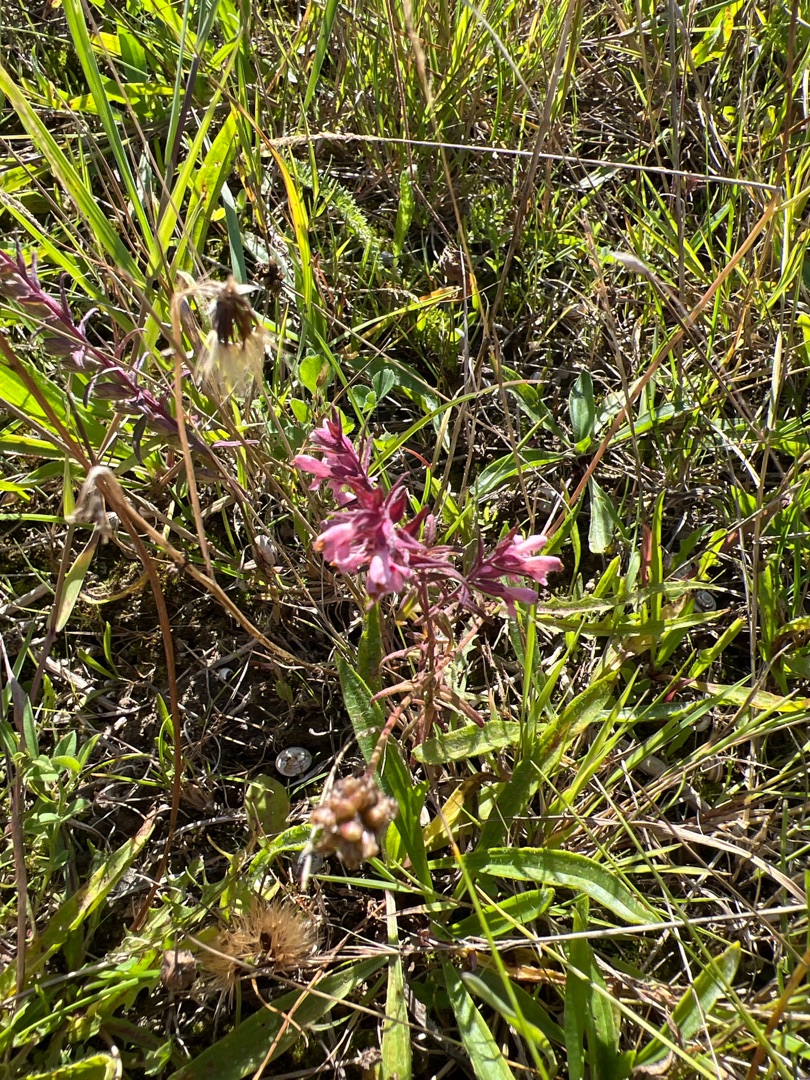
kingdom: Plantae
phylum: Tracheophyta
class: Magnoliopsida
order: Lamiales
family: Orobanchaceae
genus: Odontites
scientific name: Odontites vulgaris
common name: Høst-rødtop
